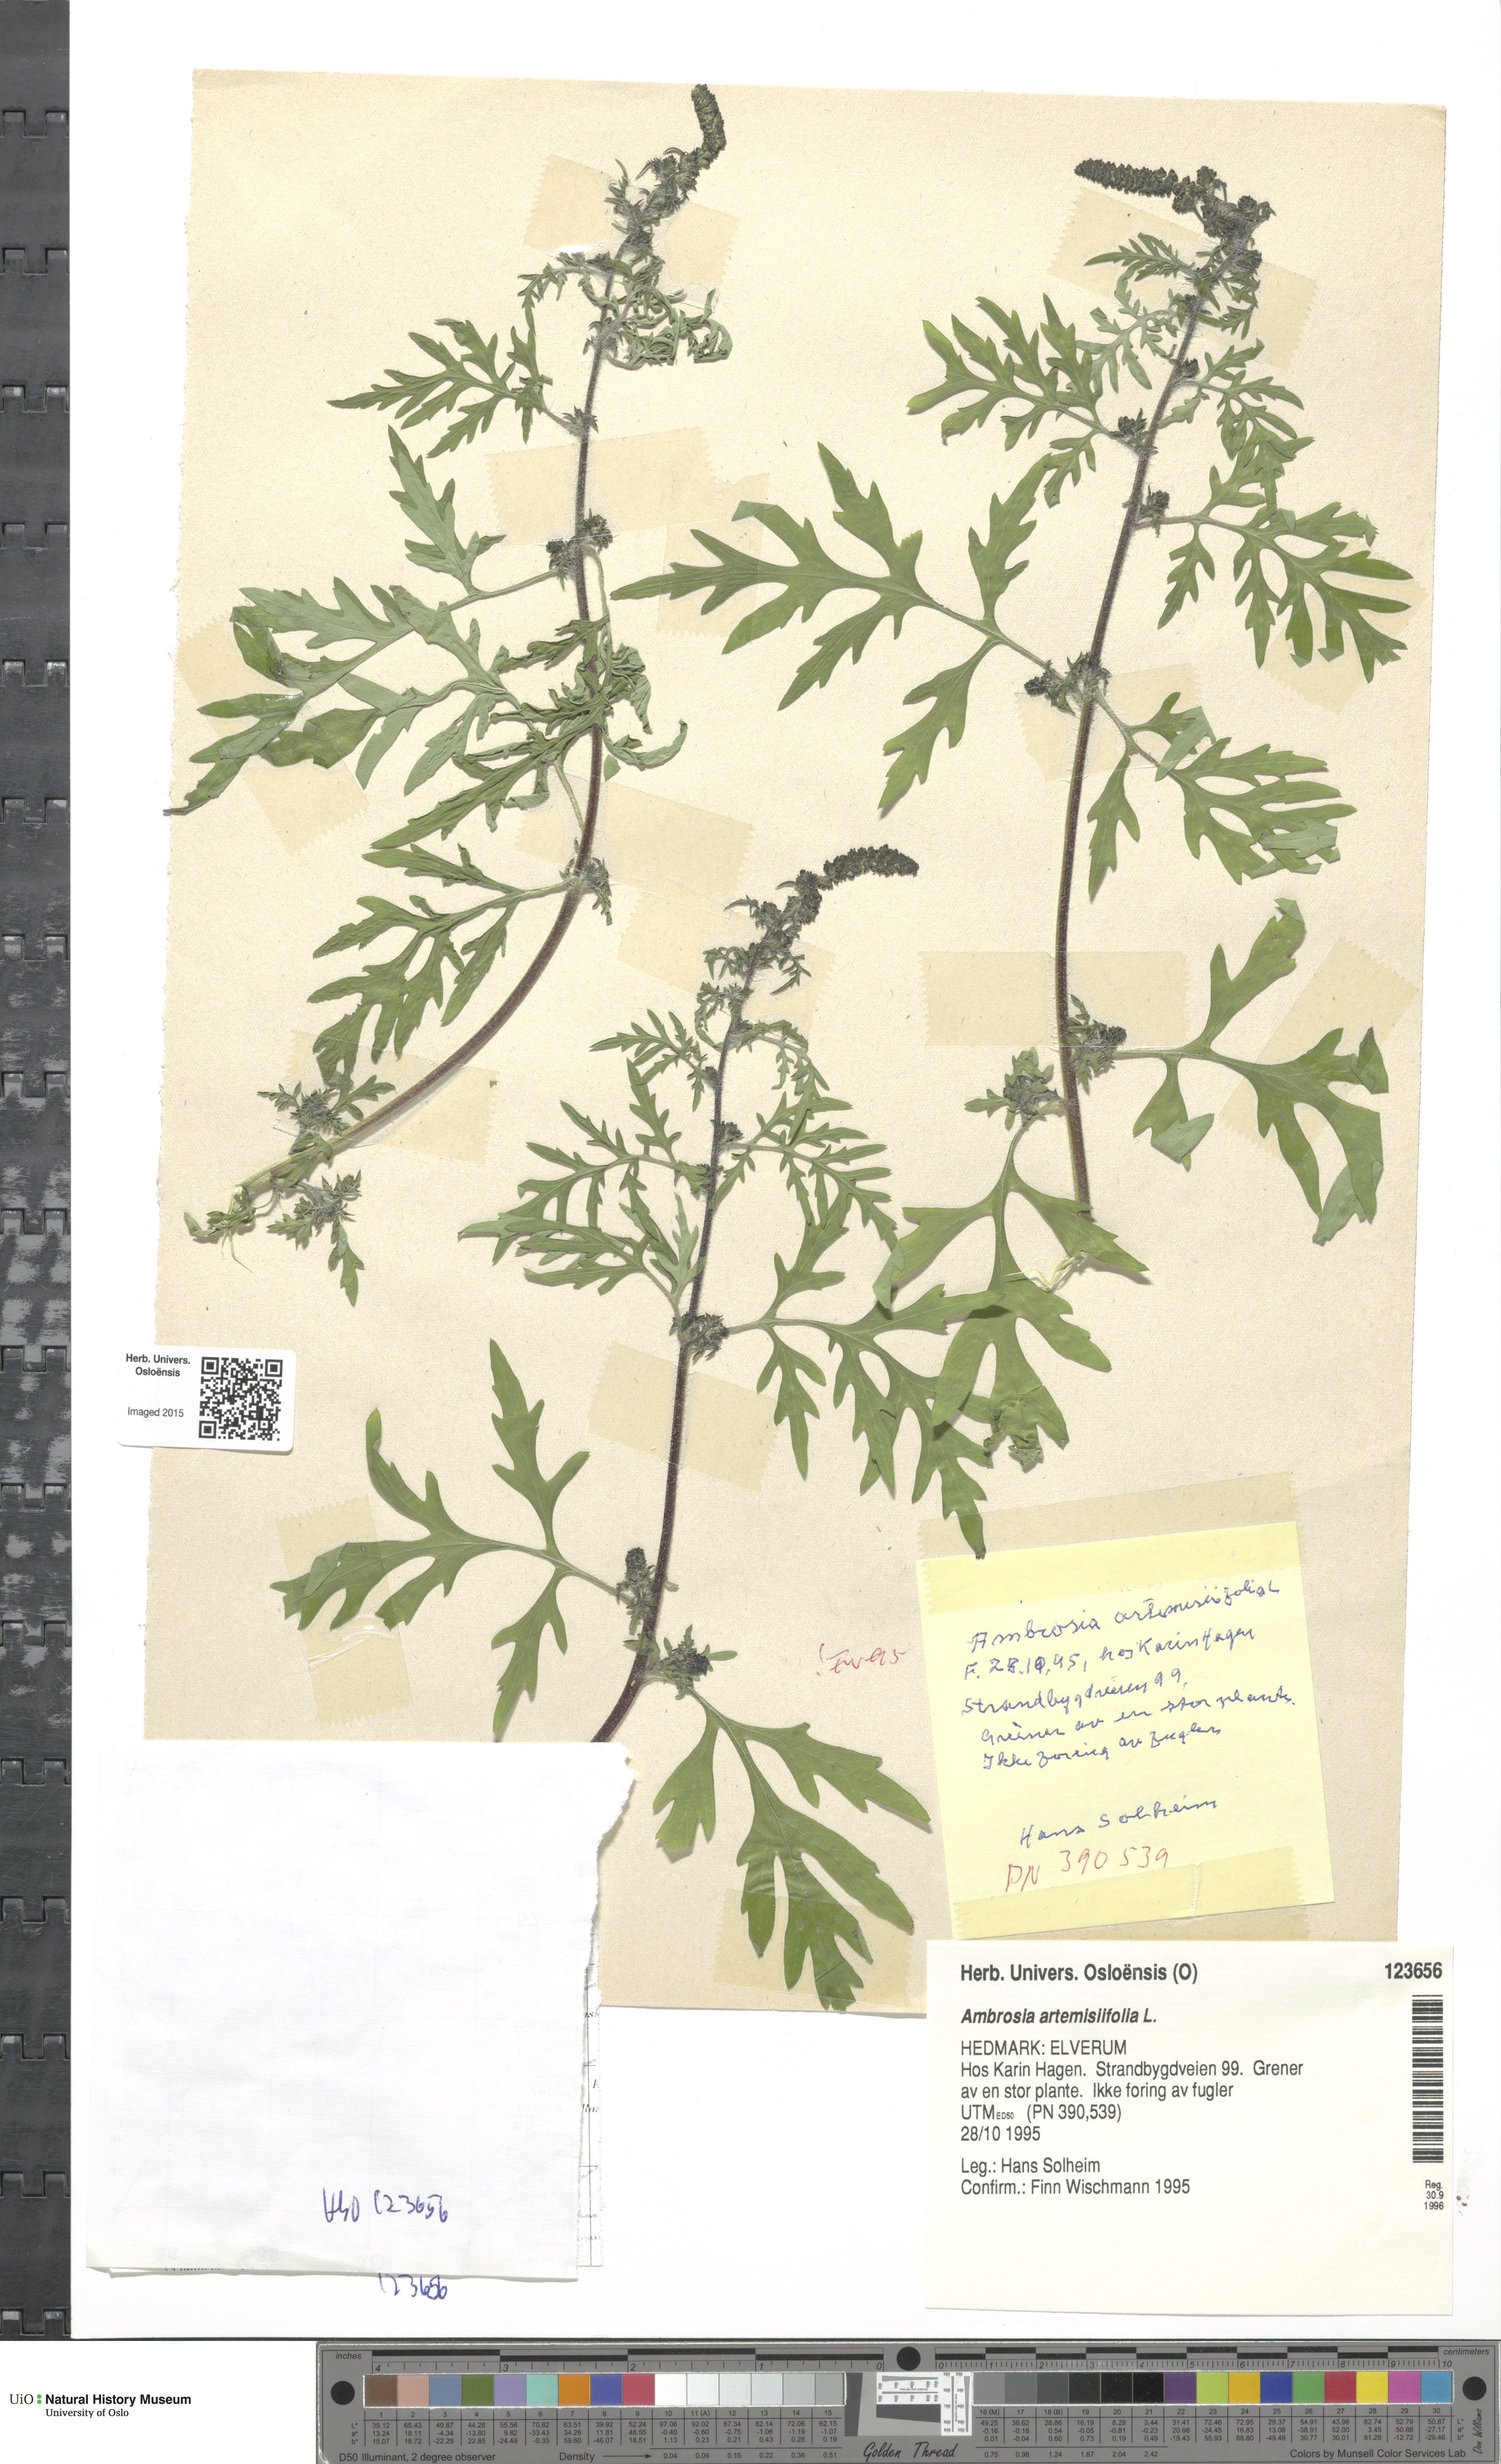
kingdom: Plantae
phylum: Tracheophyta
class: Magnoliopsida
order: Asterales
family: Asteraceae
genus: Ambrosia
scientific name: Ambrosia artemisiifolia
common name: Annual ragweed
